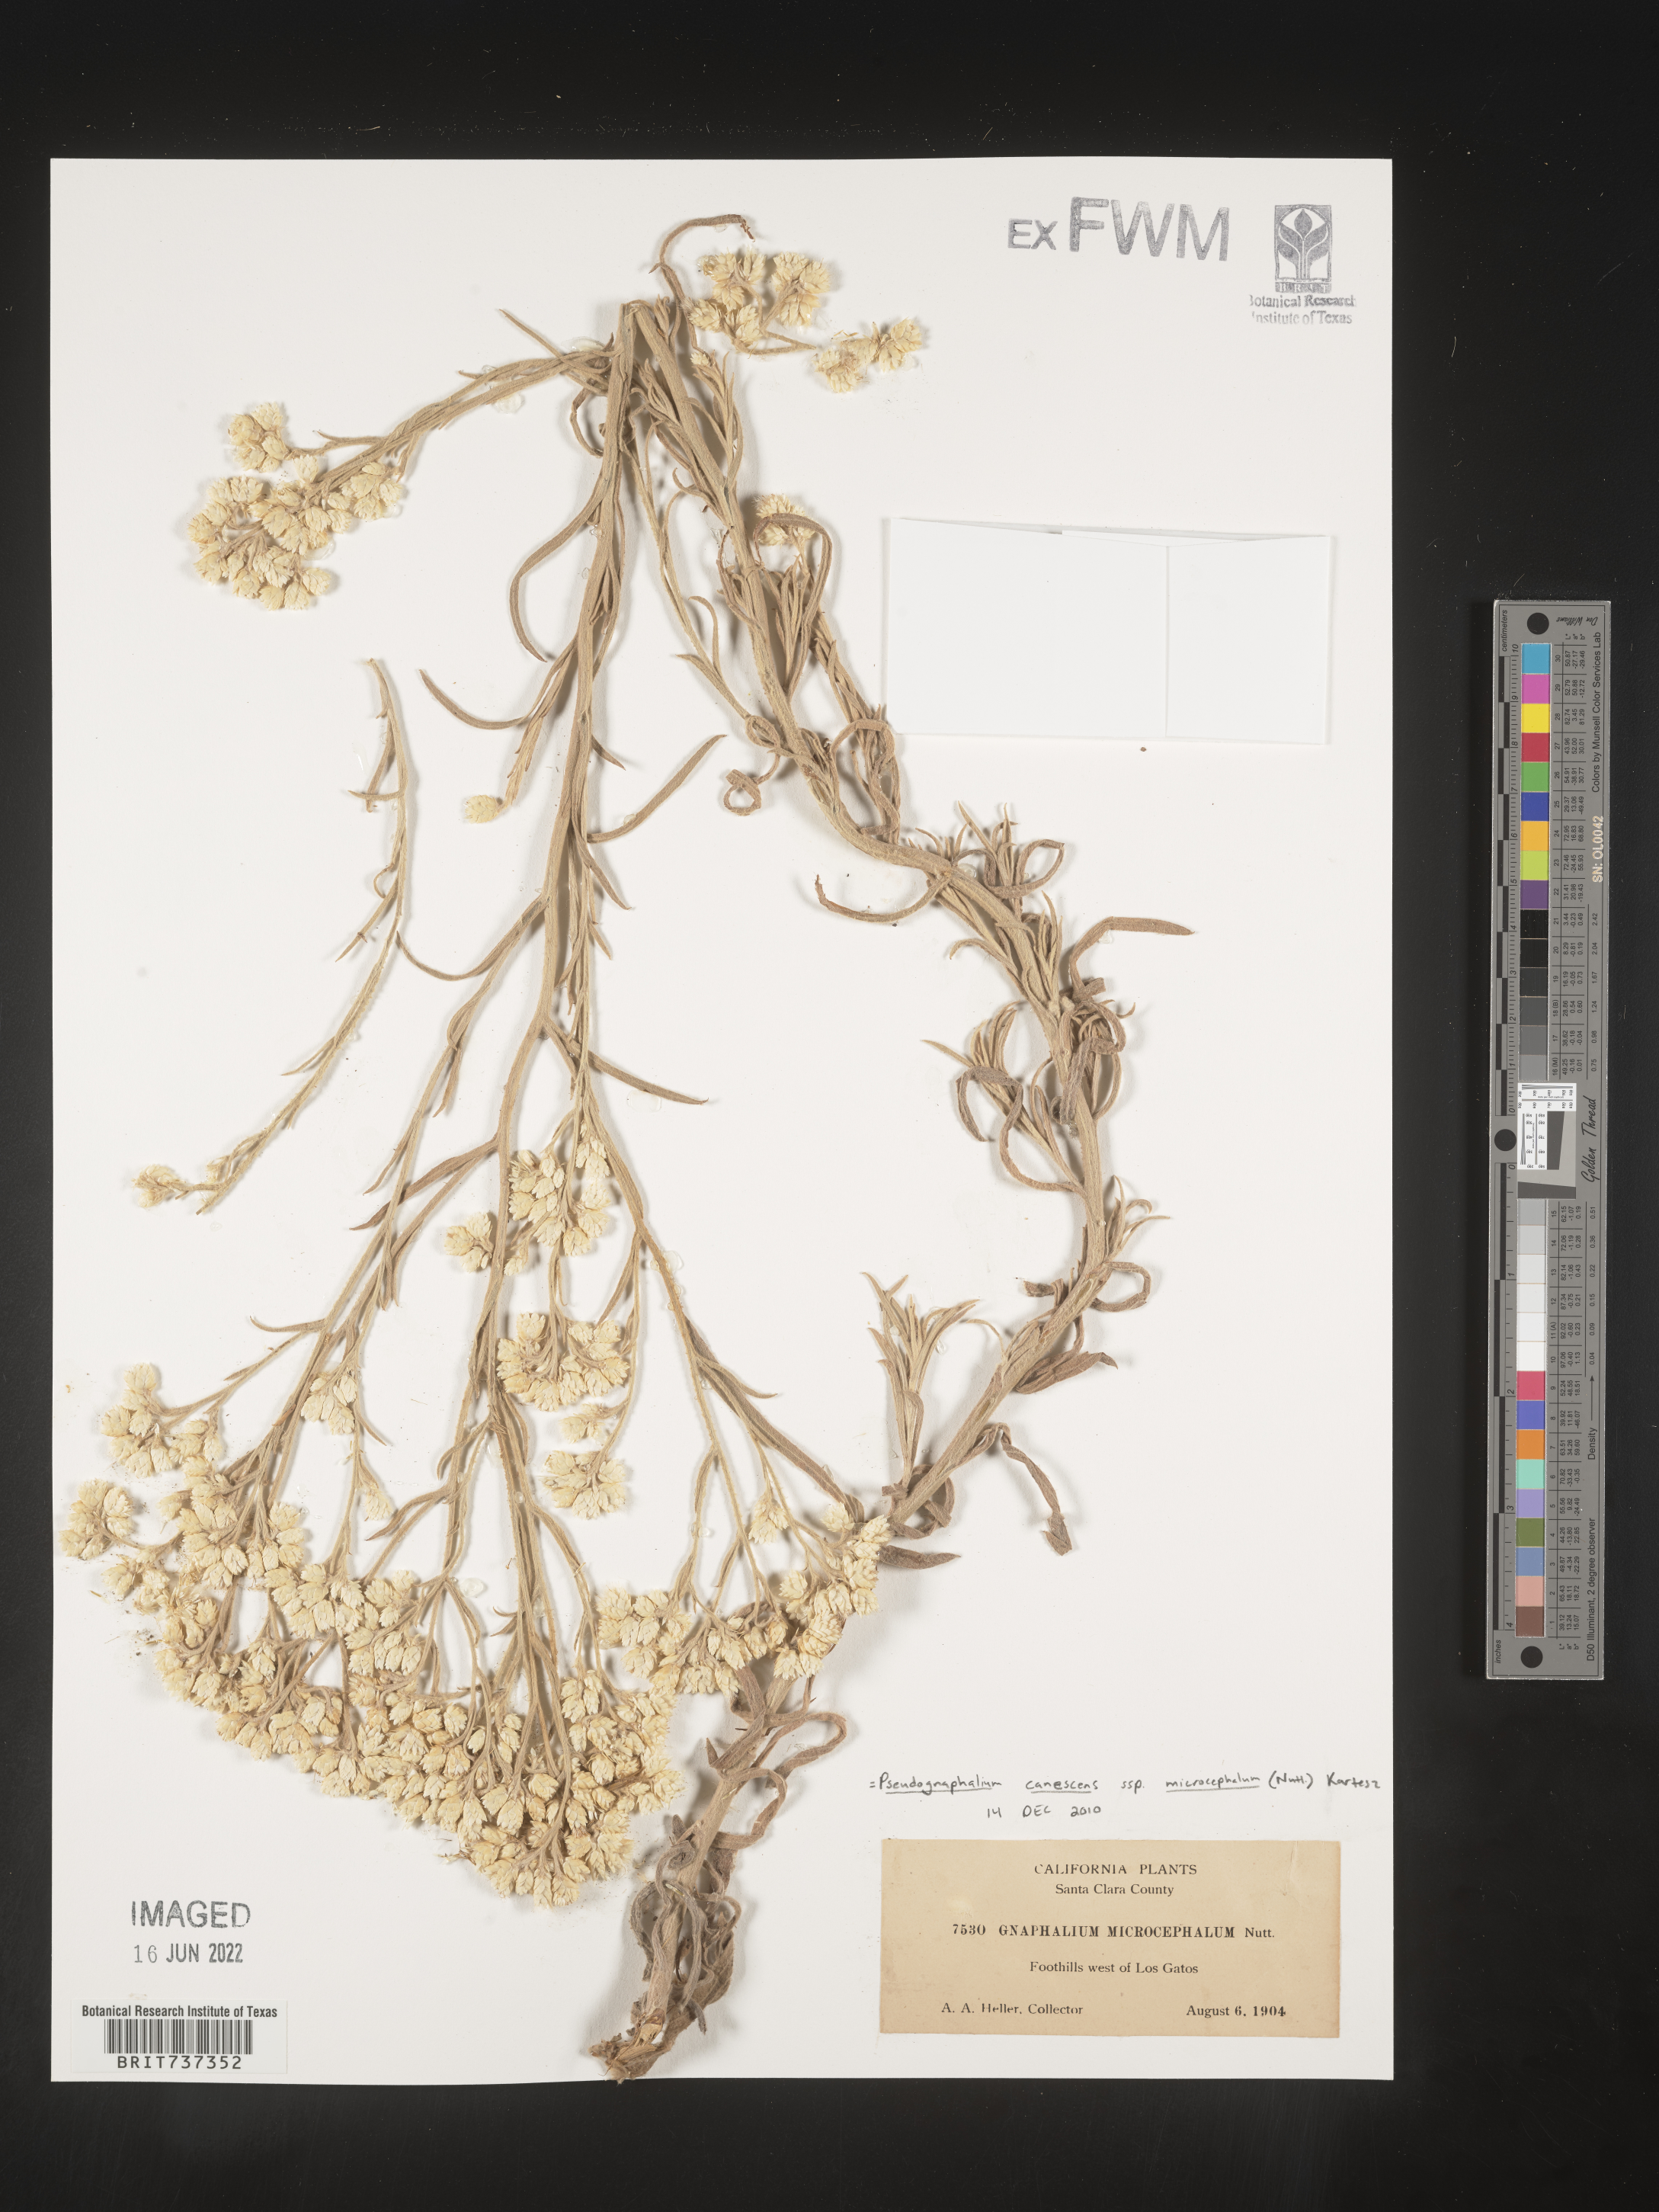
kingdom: Plantae
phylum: Tracheophyta
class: Magnoliopsida
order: Asterales
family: Asteraceae
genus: Pseudognaphalium
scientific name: Pseudognaphalium canescens
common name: Wright's rabbit-tobacco
